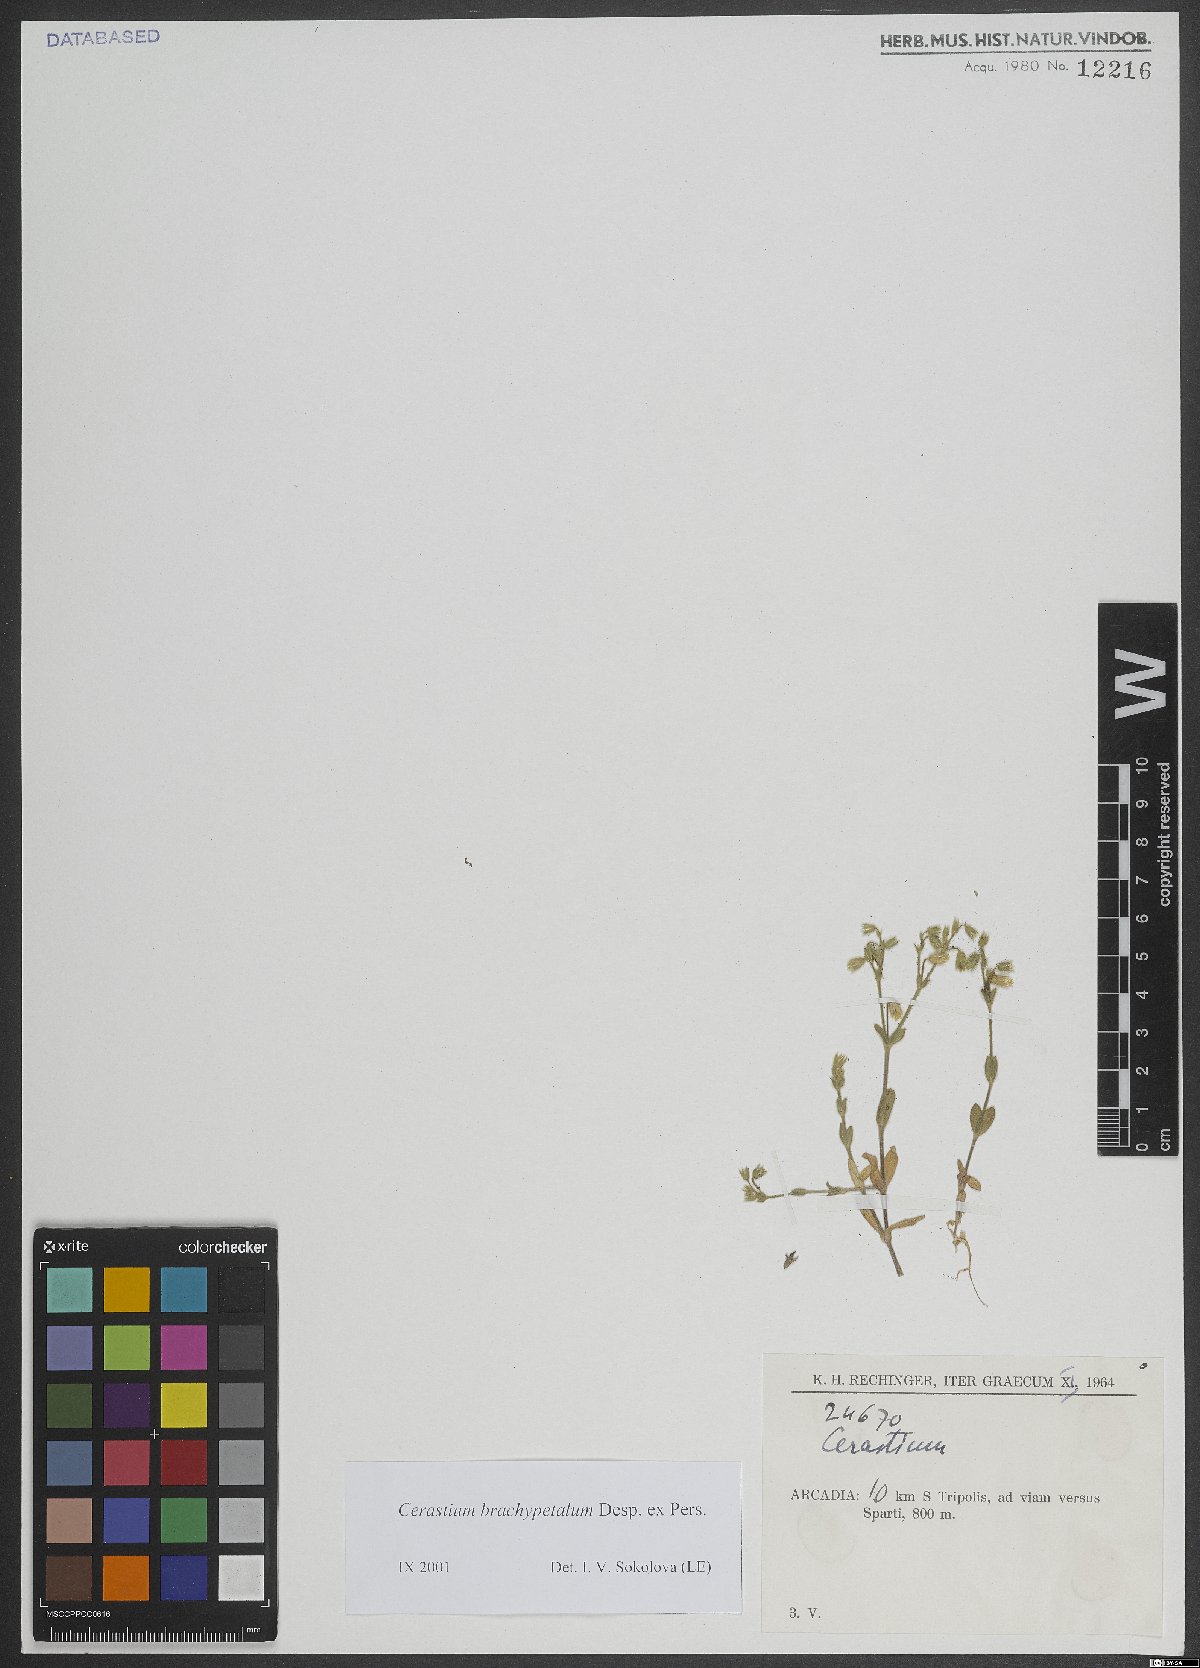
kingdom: Plantae
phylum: Tracheophyta
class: Magnoliopsida
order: Caryophyllales
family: Caryophyllaceae
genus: Cerastium
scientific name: Cerastium brachypetalum
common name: Grey mouse-ear
